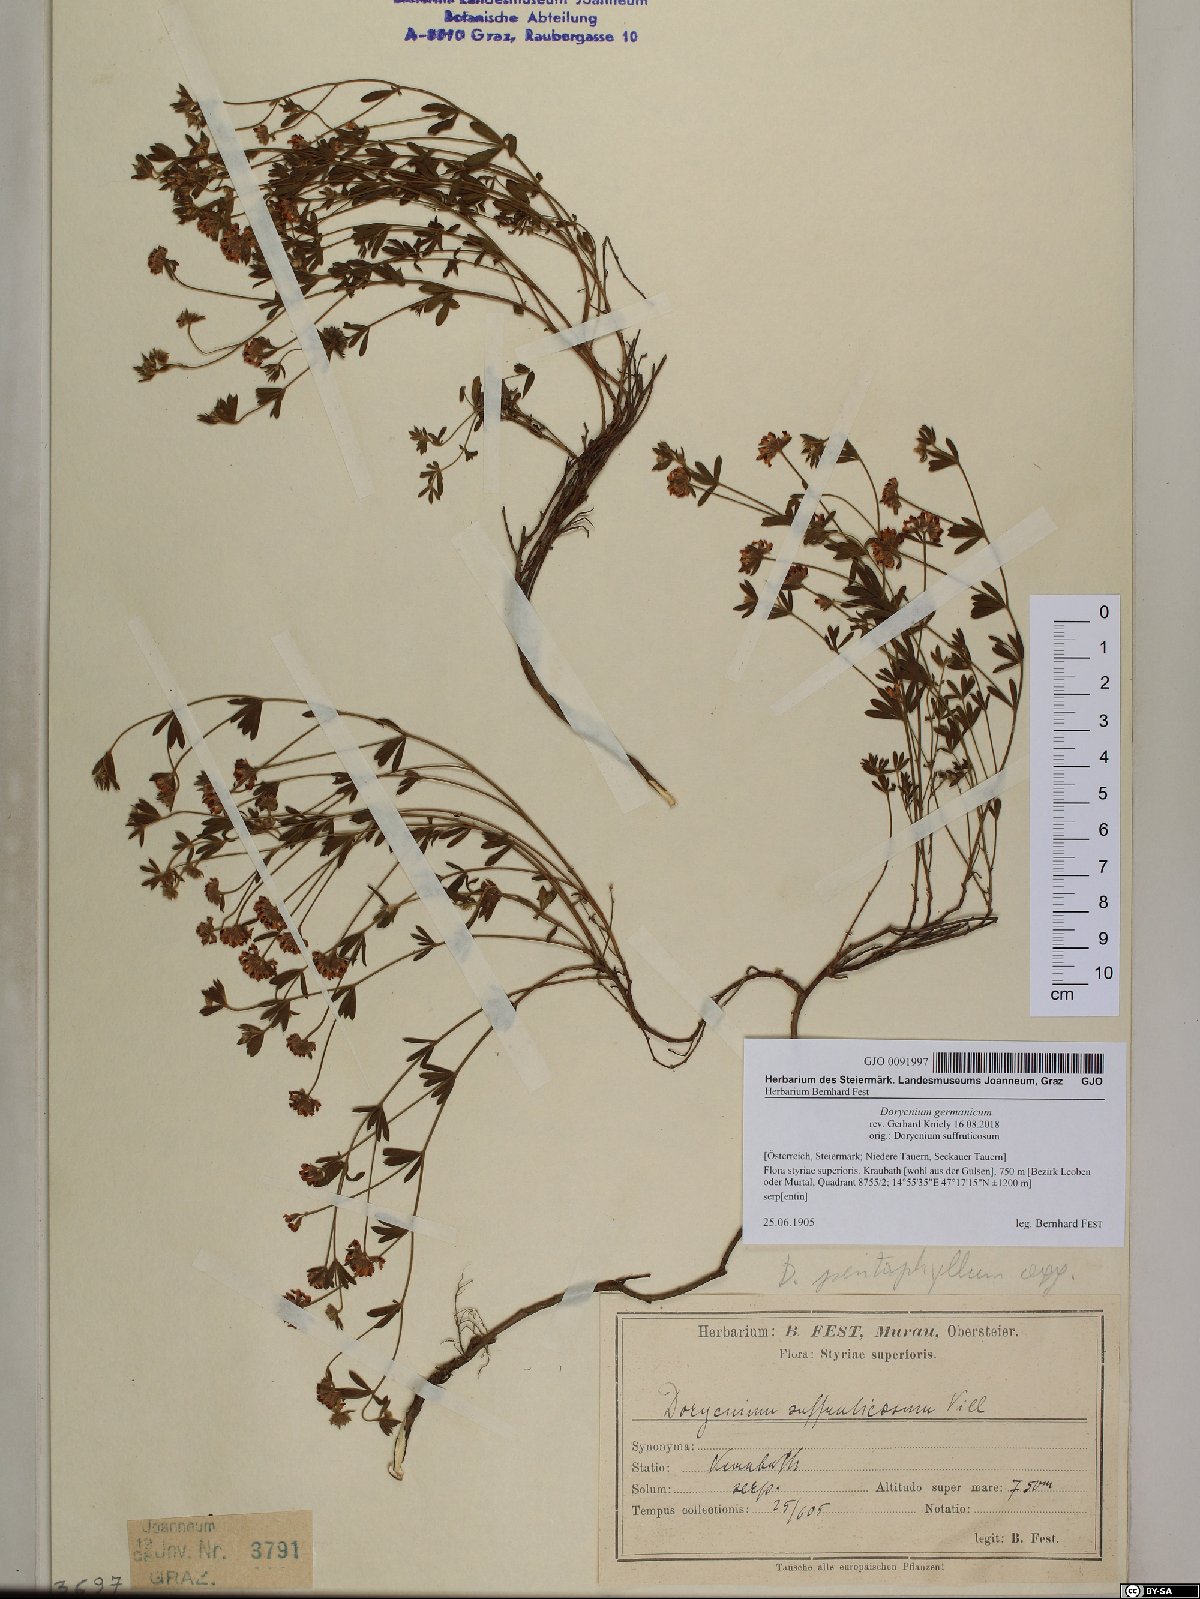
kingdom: Plantae
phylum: Tracheophyta
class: Magnoliopsida
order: Fabales
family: Fabaceae
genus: Lotus
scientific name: Lotus germanicus
